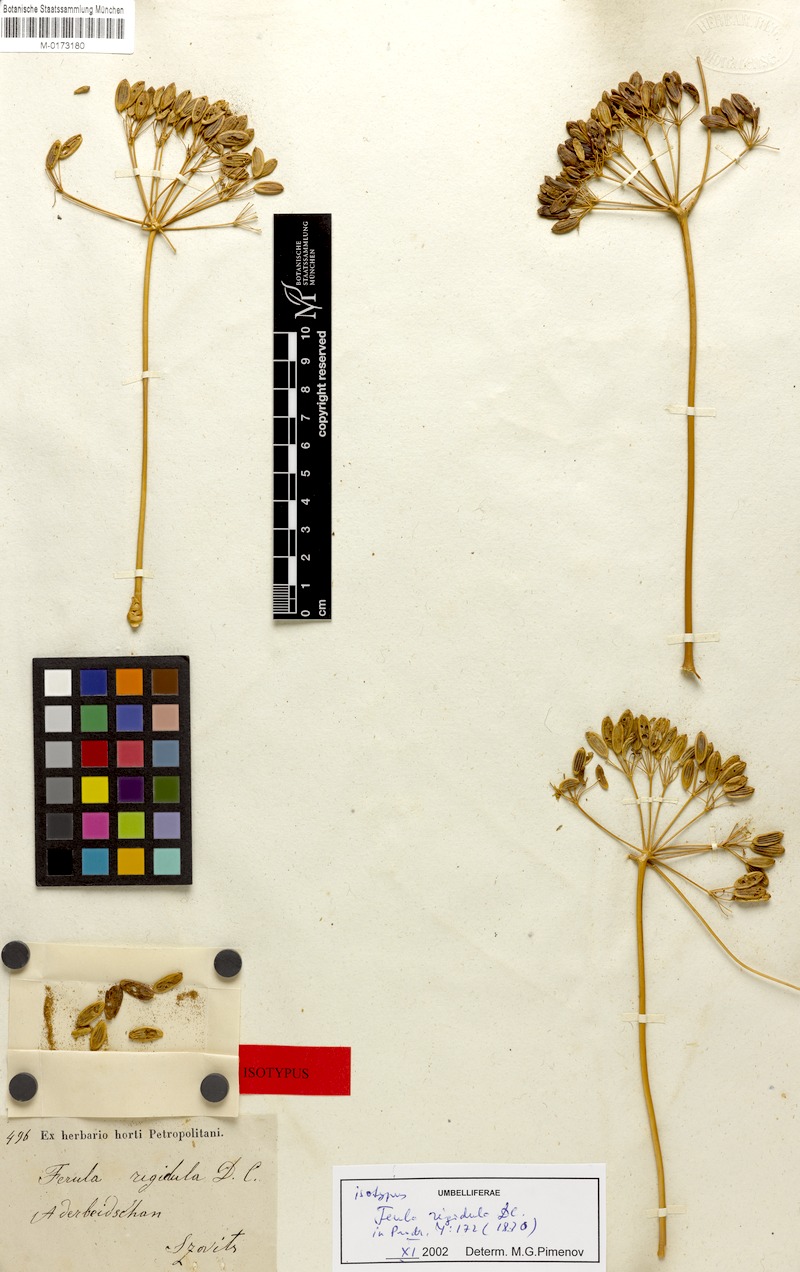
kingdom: Plantae
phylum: Tracheophyta
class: Magnoliopsida
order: Apiales
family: Apiaceae
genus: Ferula
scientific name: Ferula rigidula
